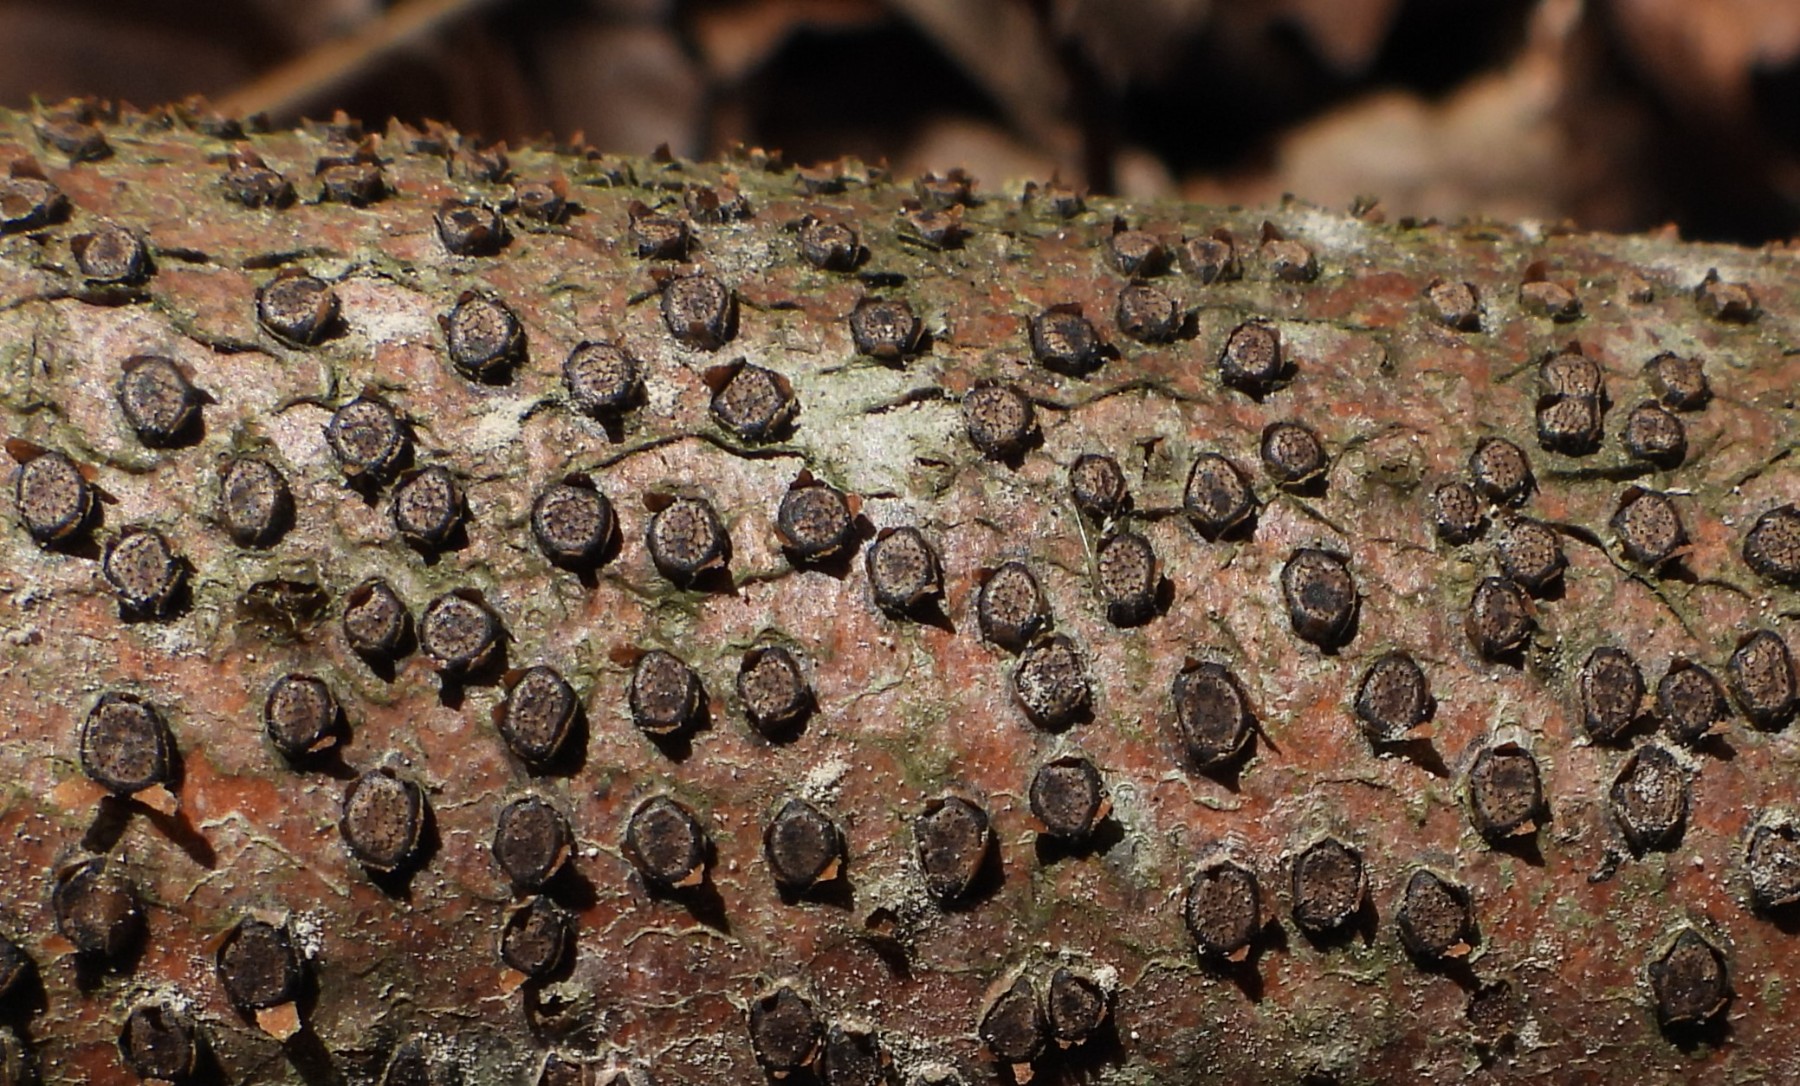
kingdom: Fungi
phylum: Ascomycota
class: Sordariomycetes
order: Xylariales
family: Diatrypaceae
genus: Diatrype
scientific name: Diatrype disciformis
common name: kant-kulskorpe
